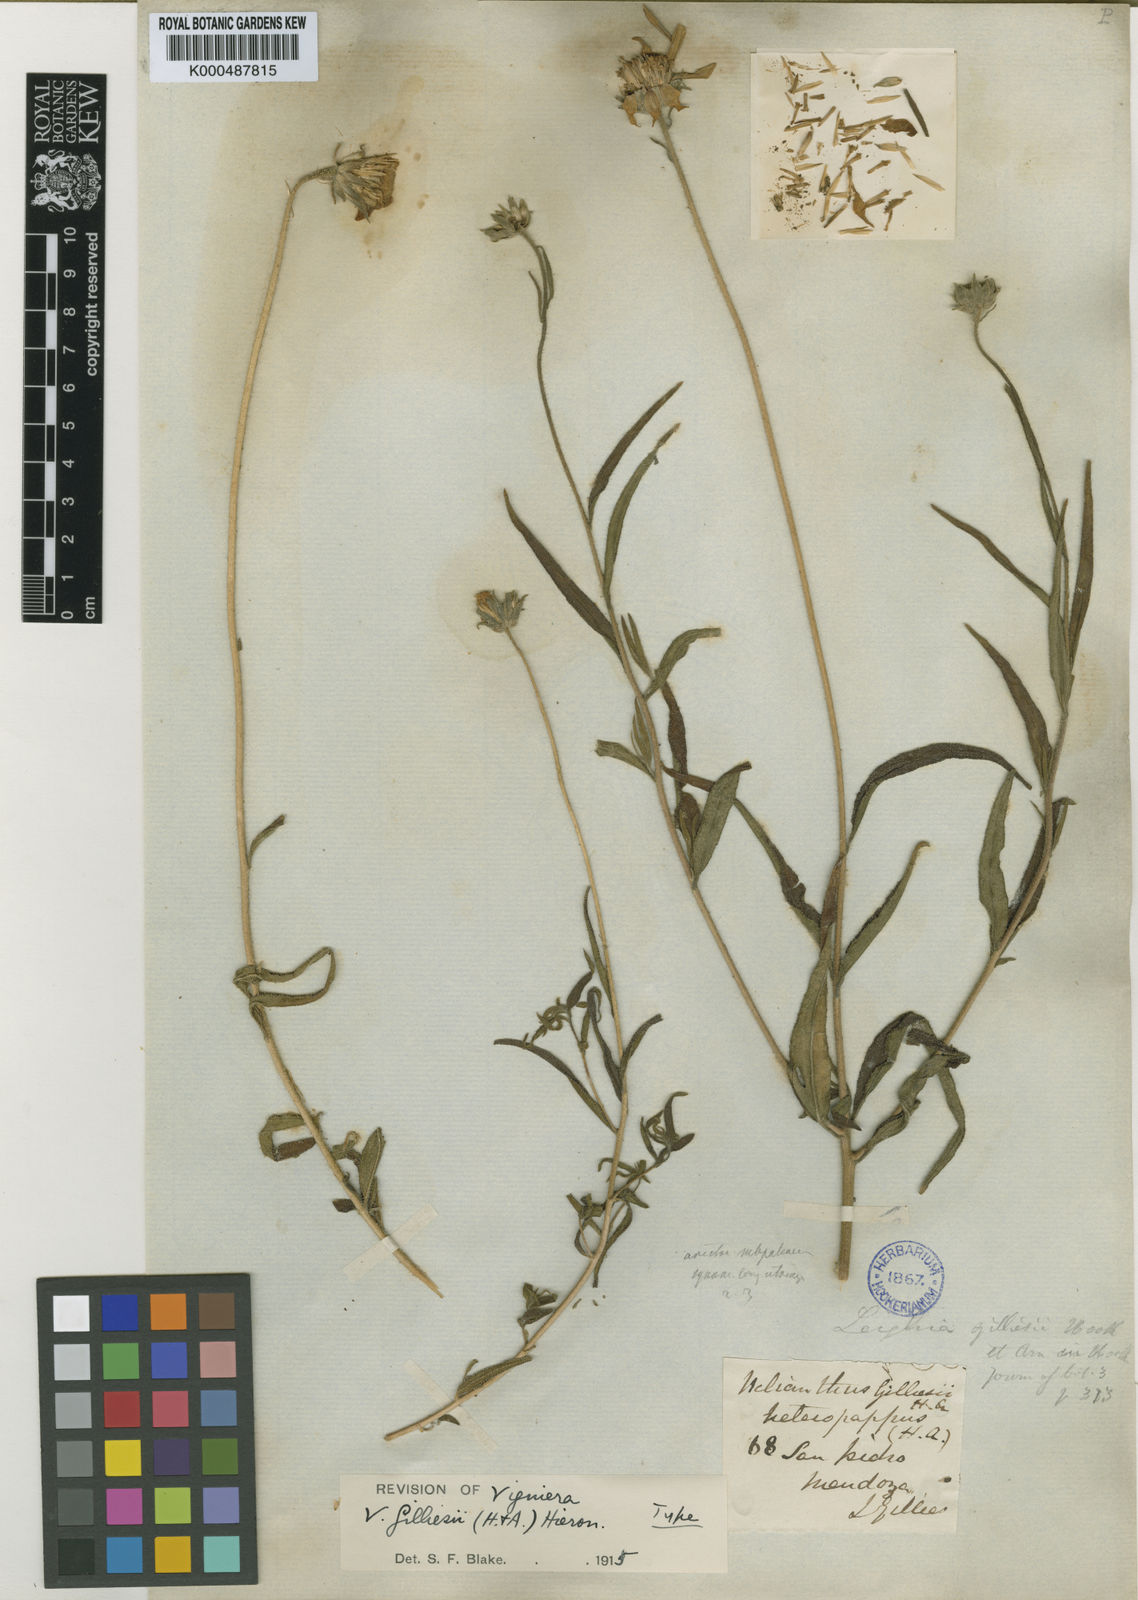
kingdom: Plantae
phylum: Tracheophyta
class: Magnoliopsida
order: Asterales
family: Asteraceae
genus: Aldama
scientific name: Aldama gilliesii
